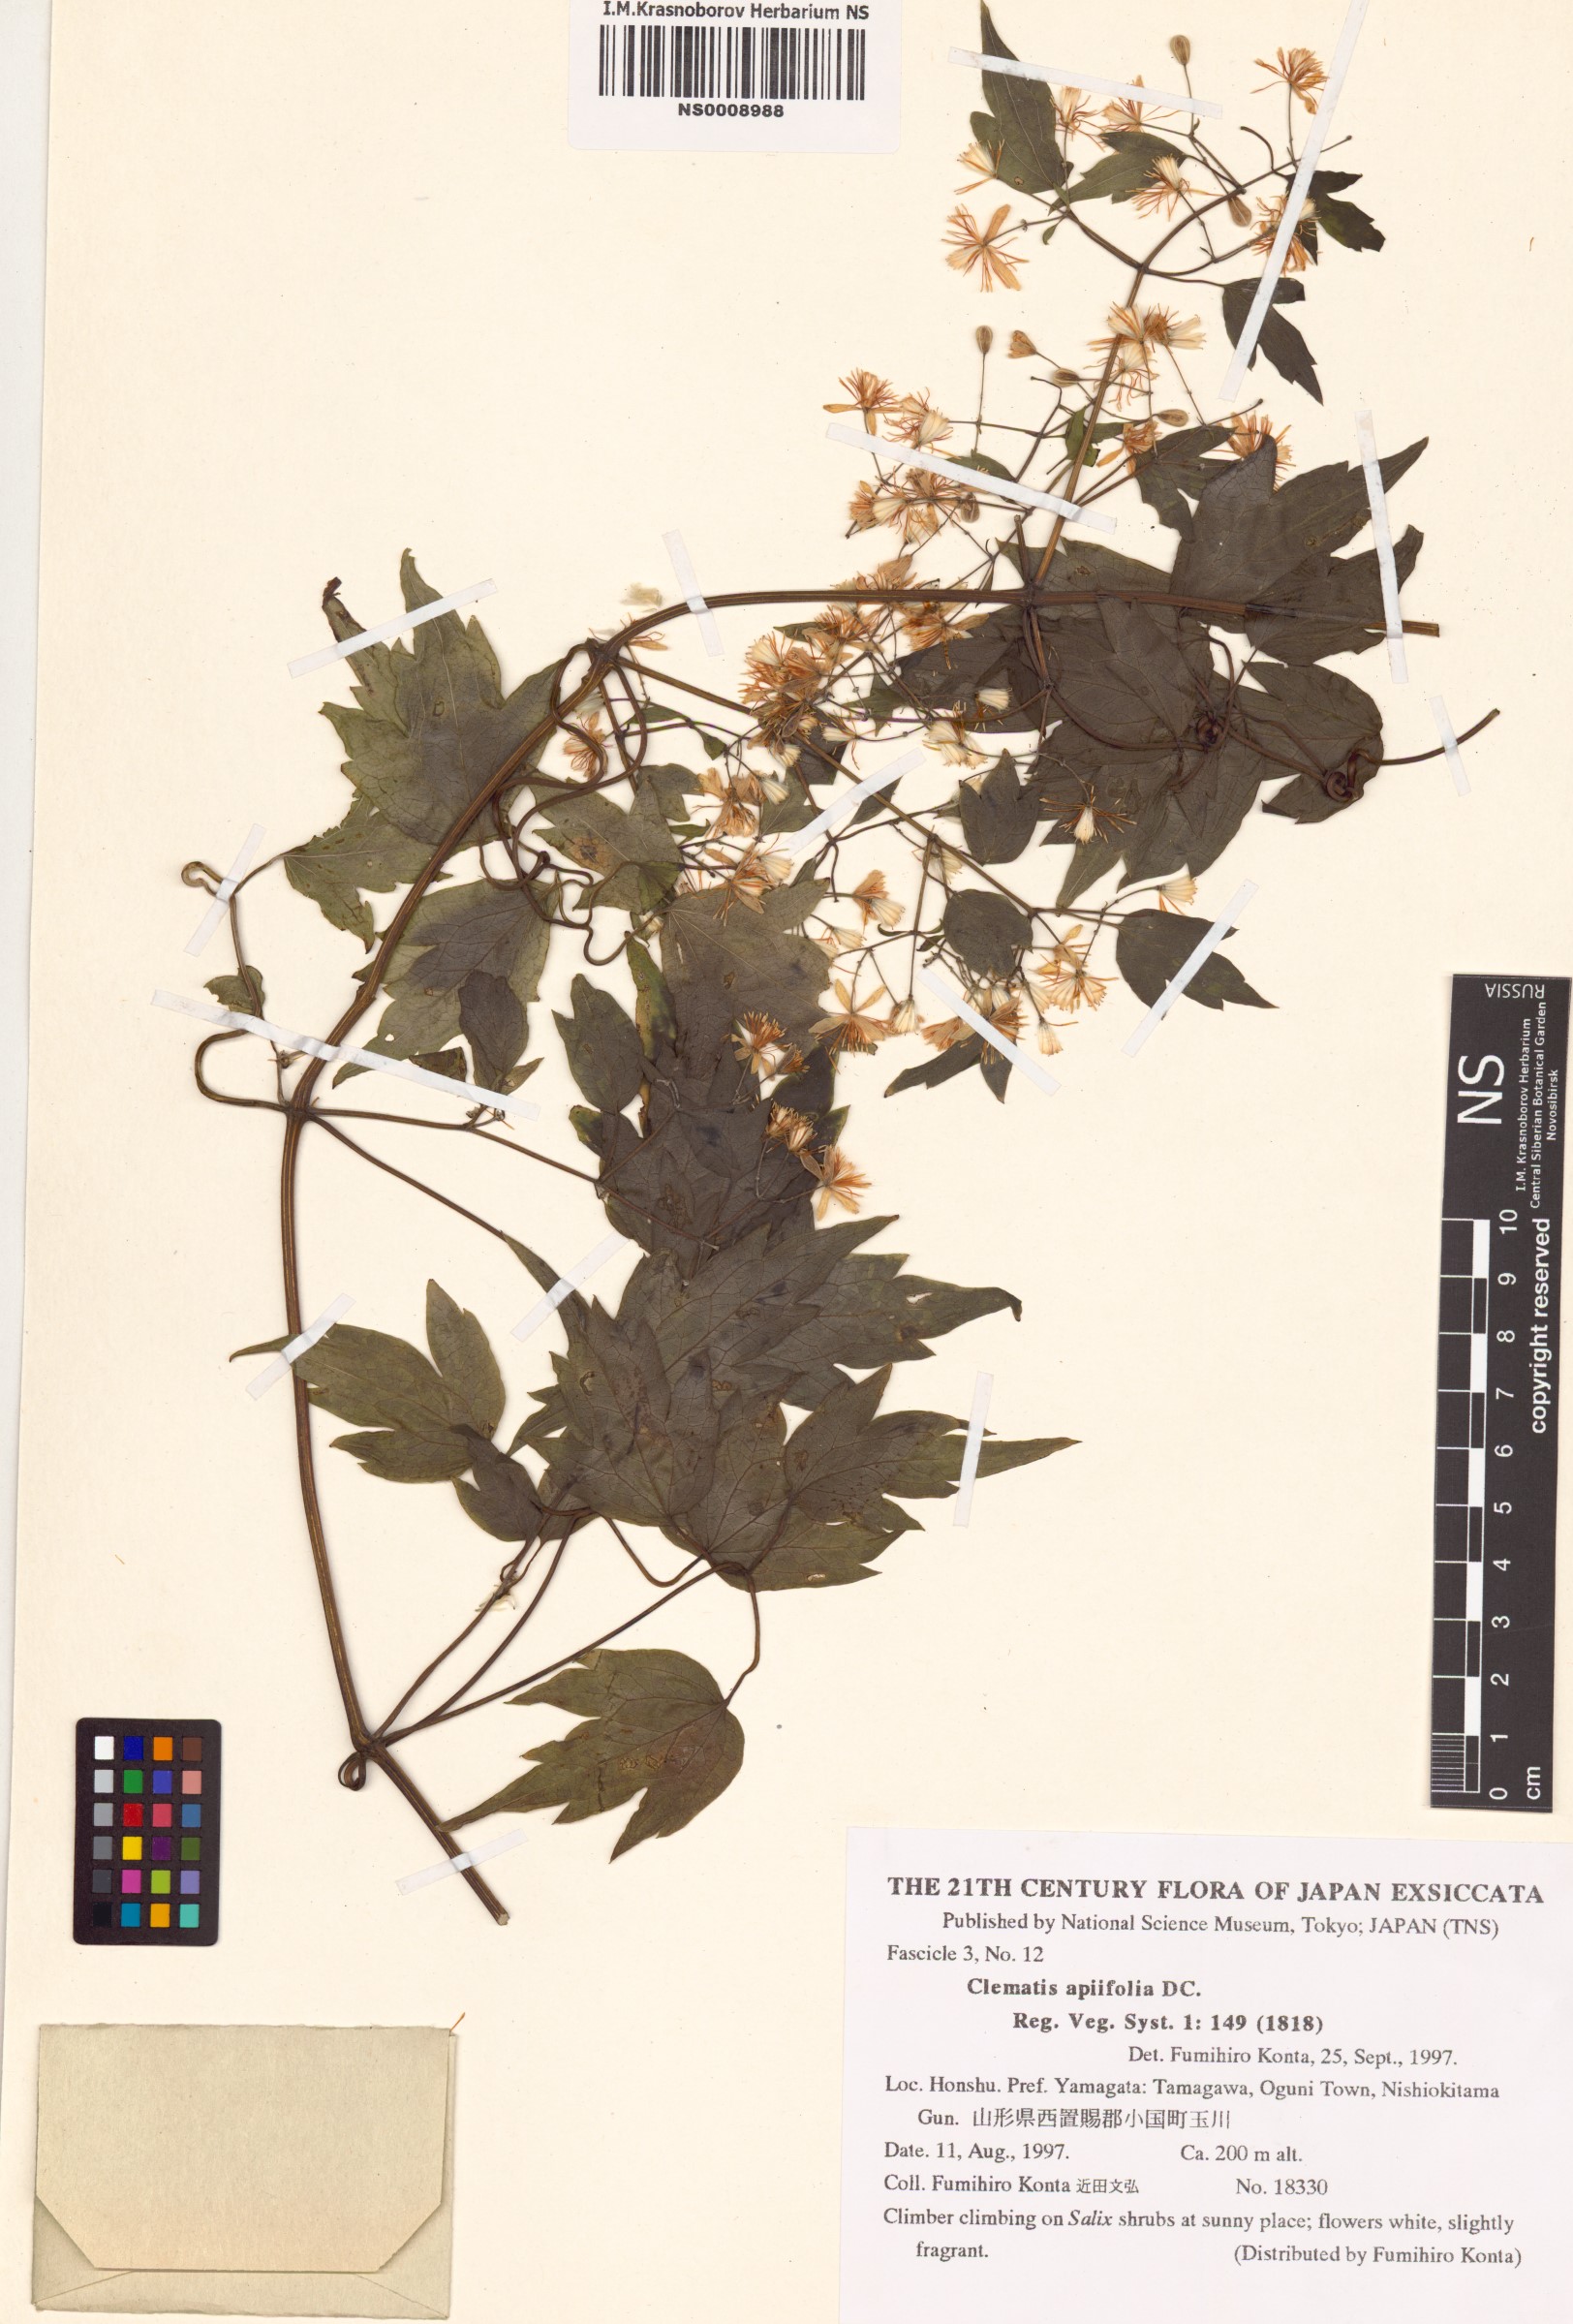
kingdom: Plantae
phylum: Tracheophyta
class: Magnoliopsida
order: Ranunculales
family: Ranunculaceae
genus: Clematis
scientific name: Clematis apiifolia
